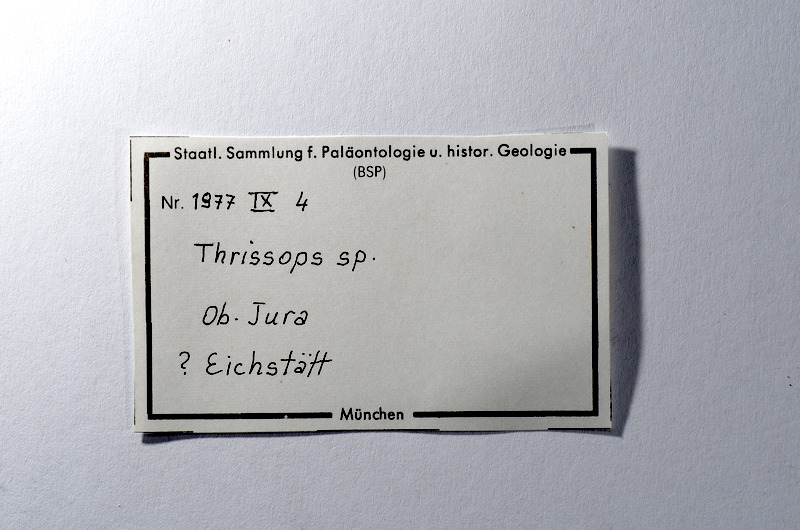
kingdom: Animalia
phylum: Chordata
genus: Thrissops
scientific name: Thrissops
